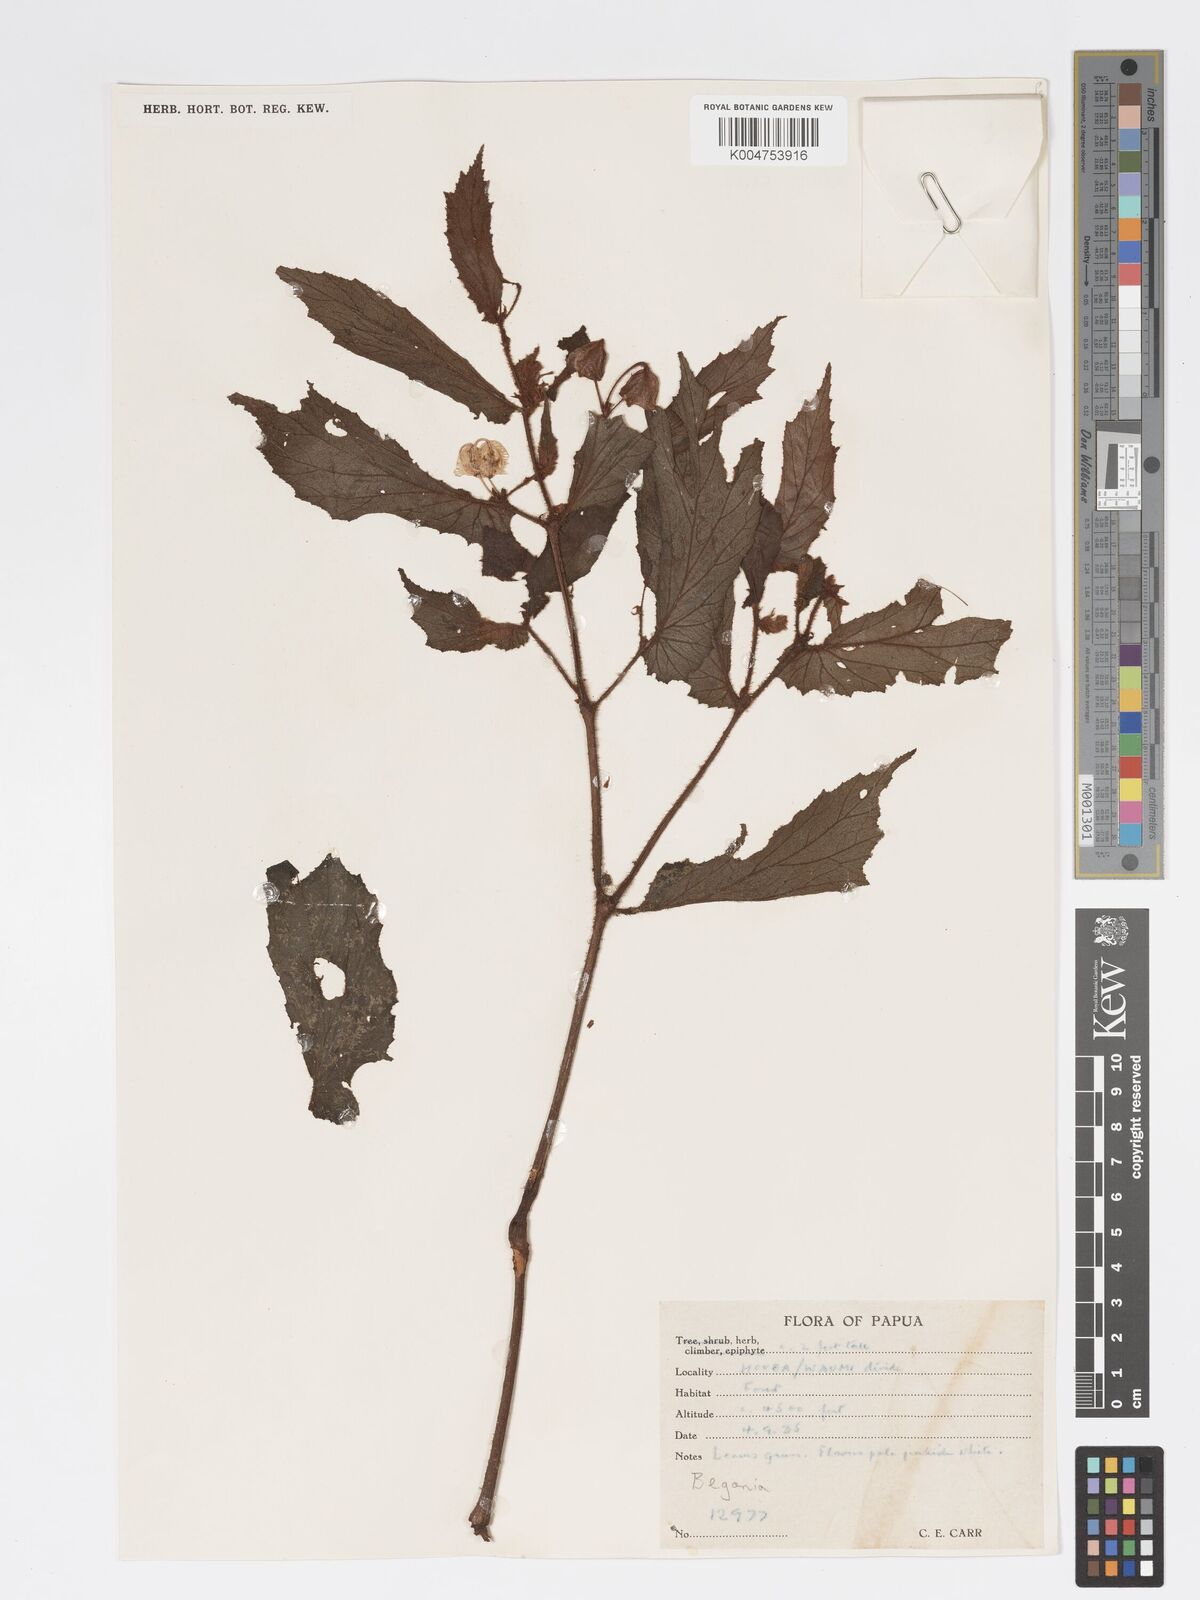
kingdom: Plantae
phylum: Tracheophyta
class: Magnoliopsida
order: Cucurbitales
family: Begoniaceae
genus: Begonia
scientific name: Begonia fruticella
